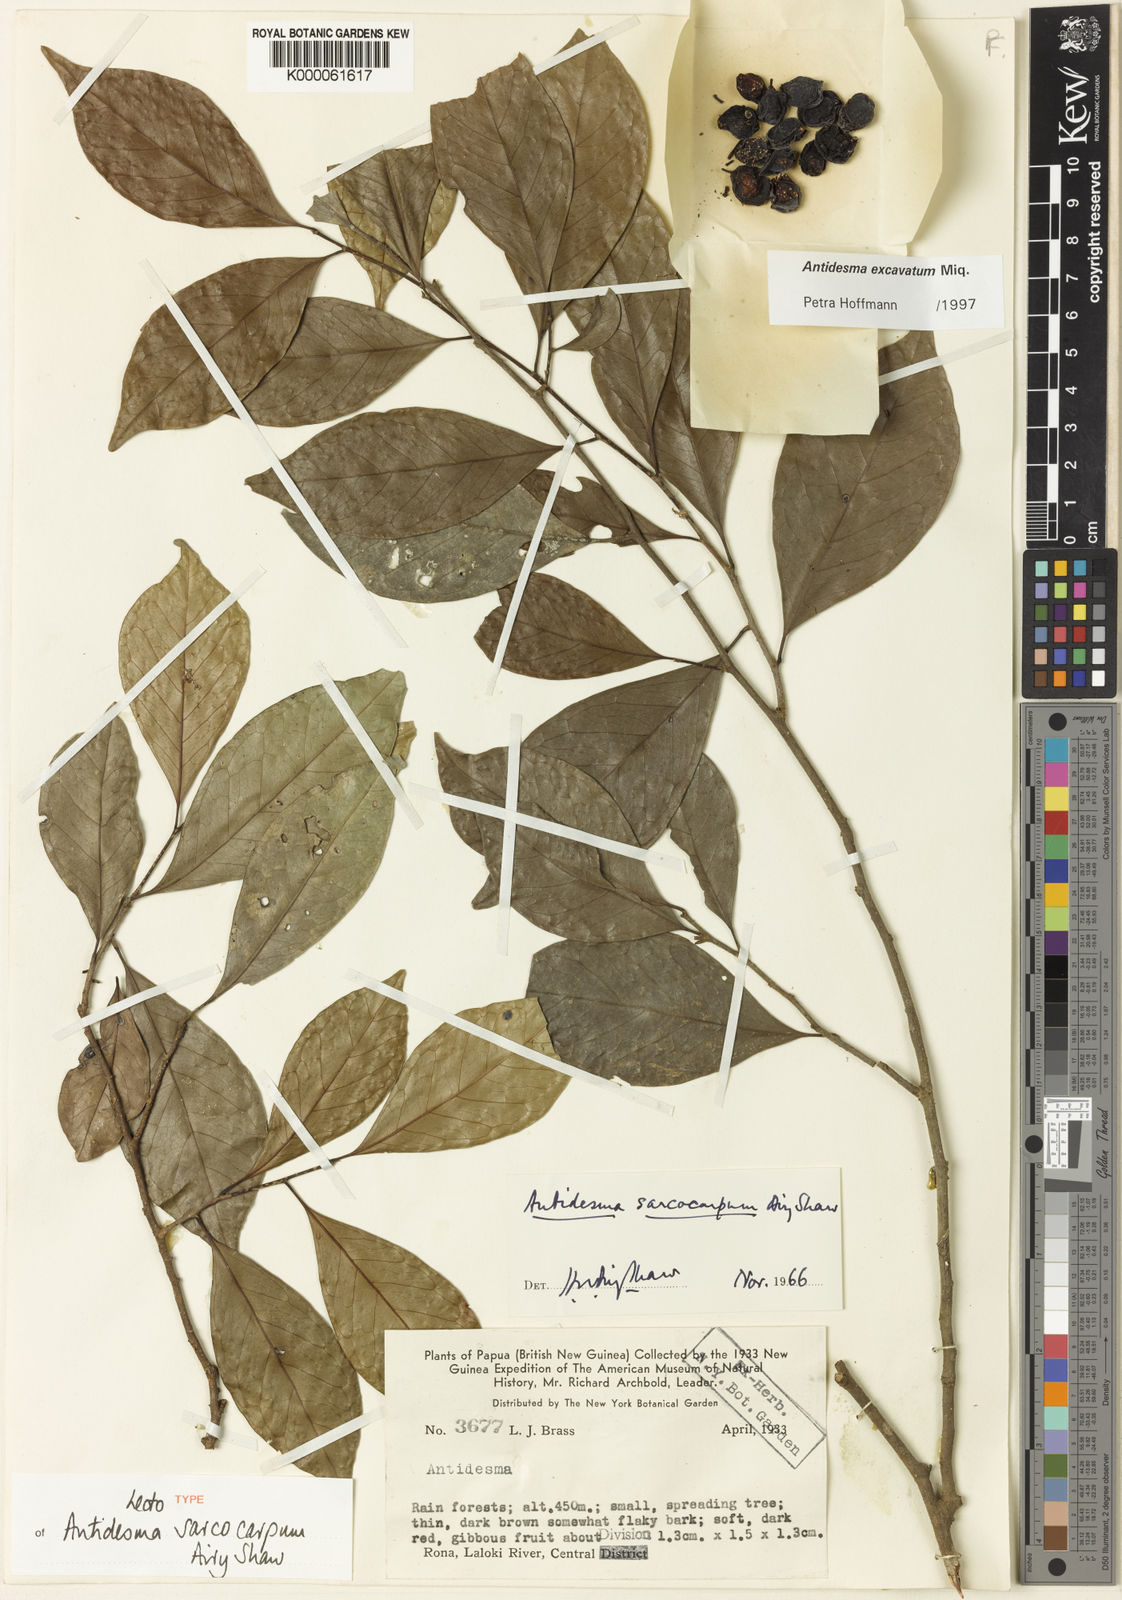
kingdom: Plantae
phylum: Tracheophyta
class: Magnoliopsida
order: Malpighiales
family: Phyllanthaceae
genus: Antidesma
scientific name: Antidesma excavatum
